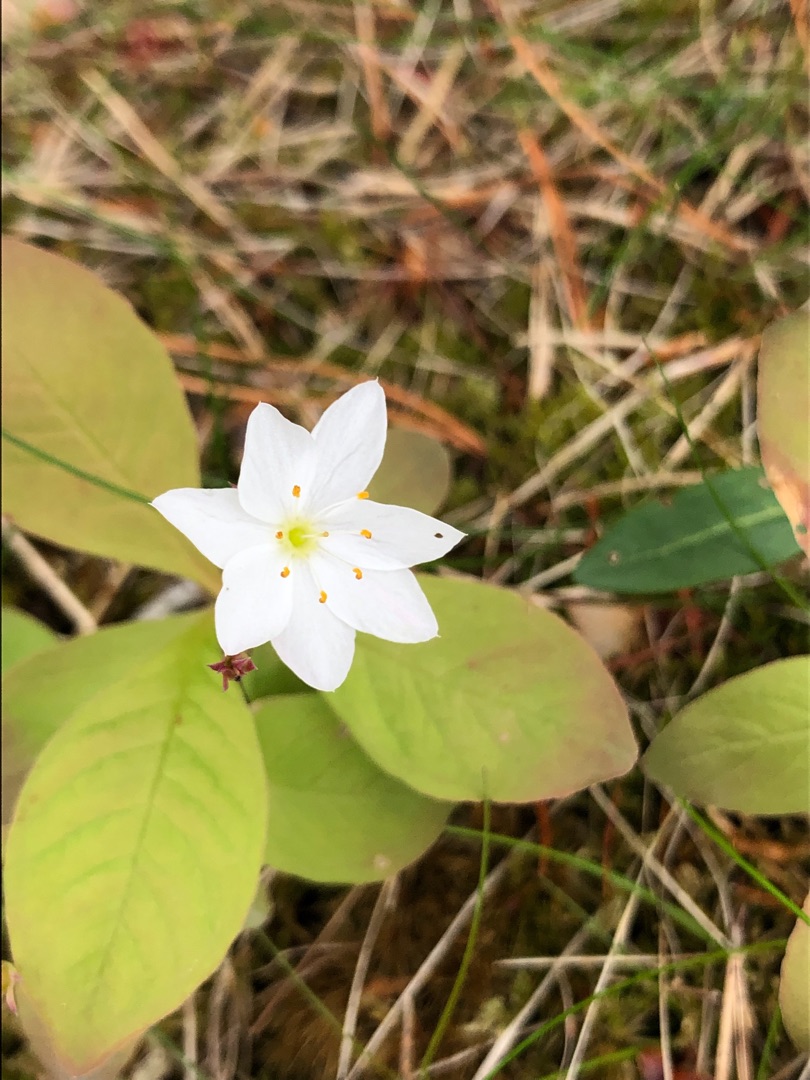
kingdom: Plantae
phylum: Tracheophyta
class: Magnoliopsida
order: Ericales
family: Primulaceae
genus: Lysimachia
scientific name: Lysimachia europaea
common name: Skovstjerne
